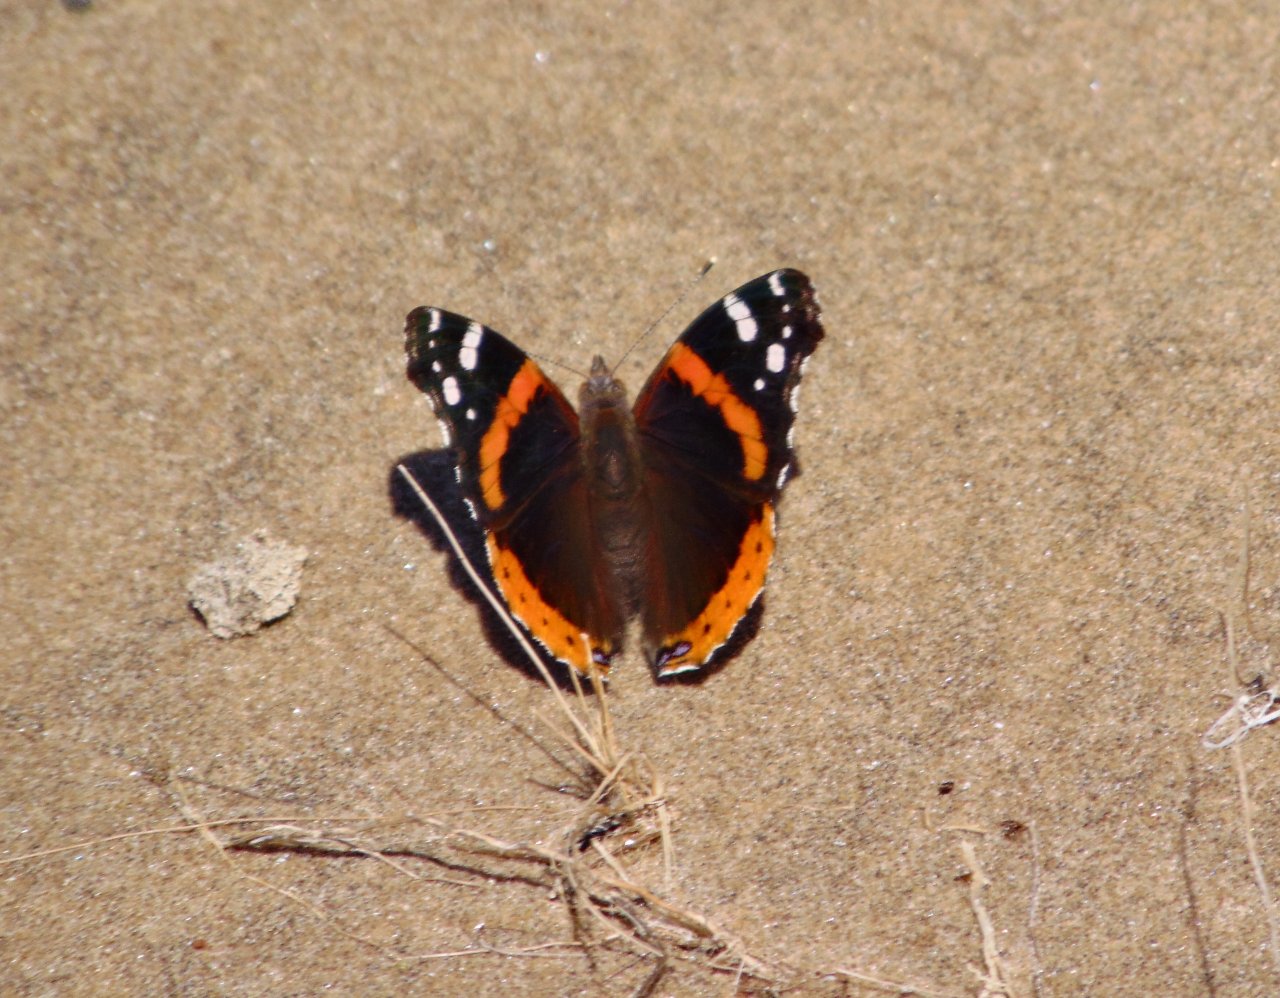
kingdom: Animalia
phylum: Arthropoda
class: Insecta
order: Lepidoptera
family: Nymphalidae
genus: Vanessa
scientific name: Vanessa atalanta
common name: Red Admiral
